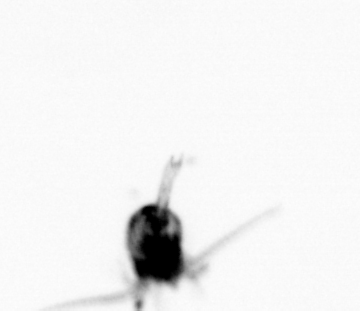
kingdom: Animalia
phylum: Arthropoda
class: Copepoda
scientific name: Copepoda
